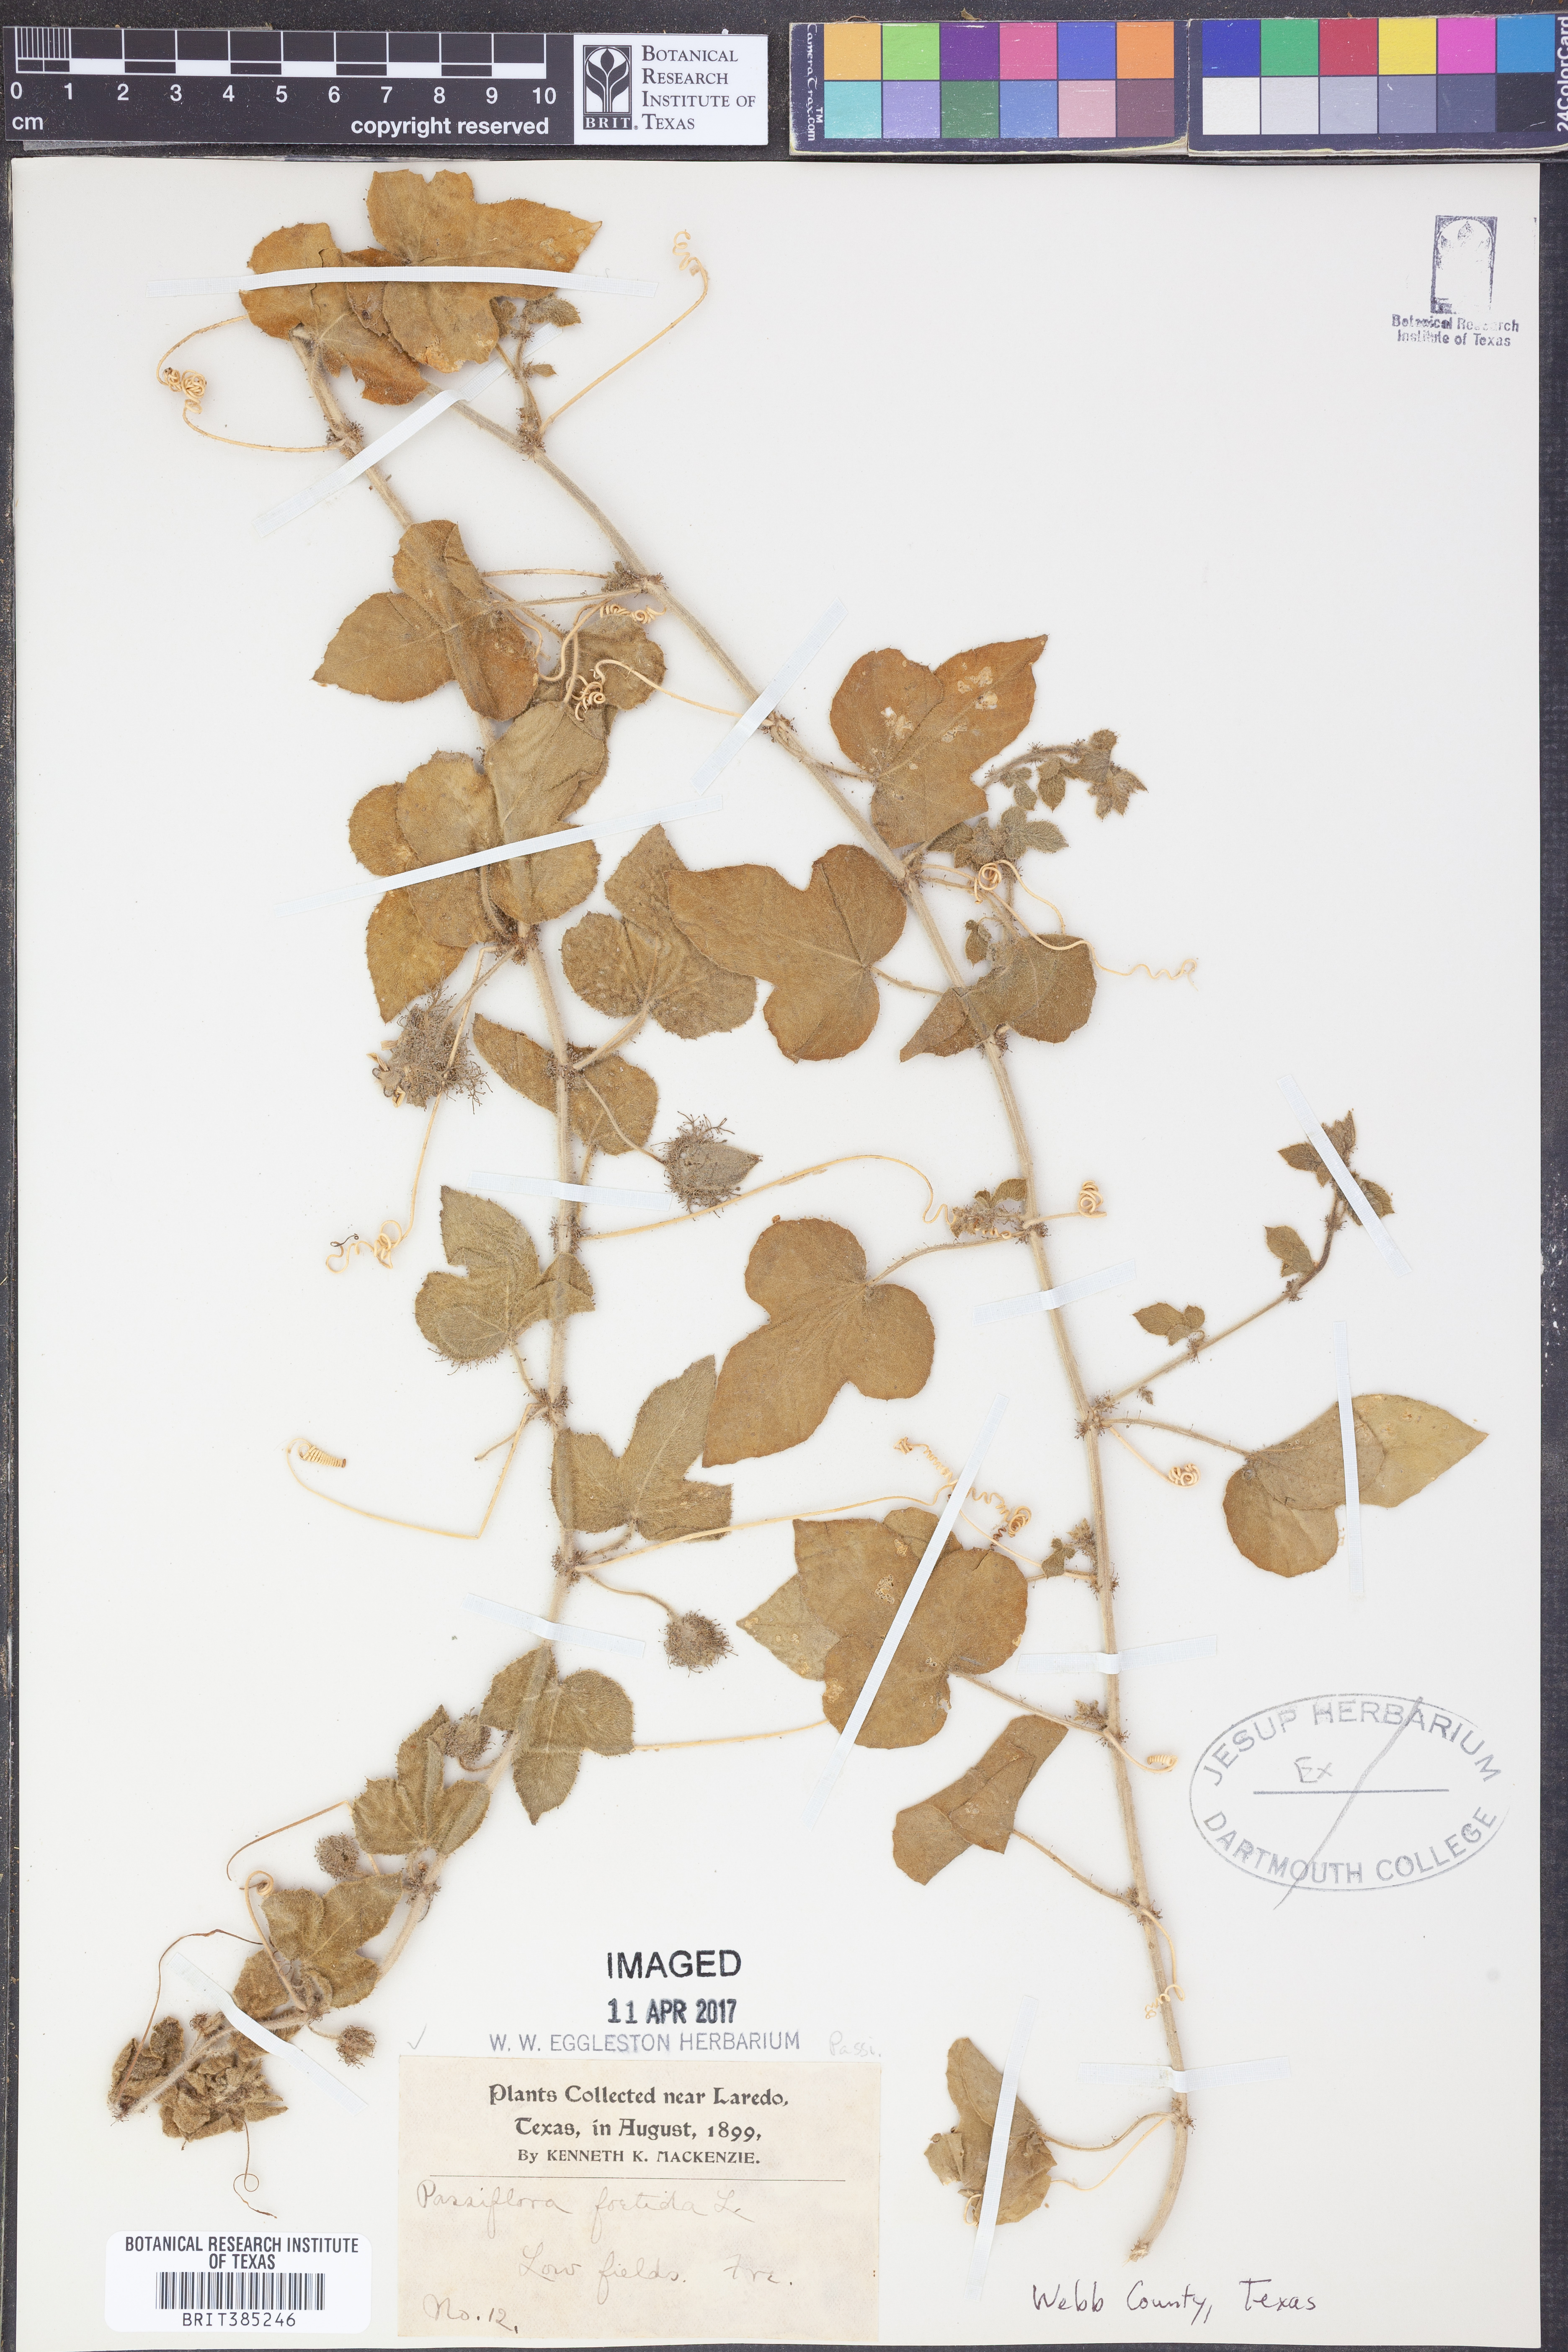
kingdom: Plantae
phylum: Tracheophyta
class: Magnoliopsida
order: Malpighiales
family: Passifloraceae
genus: Passiflora
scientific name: Passiflora foetida
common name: Fetid passionflower
